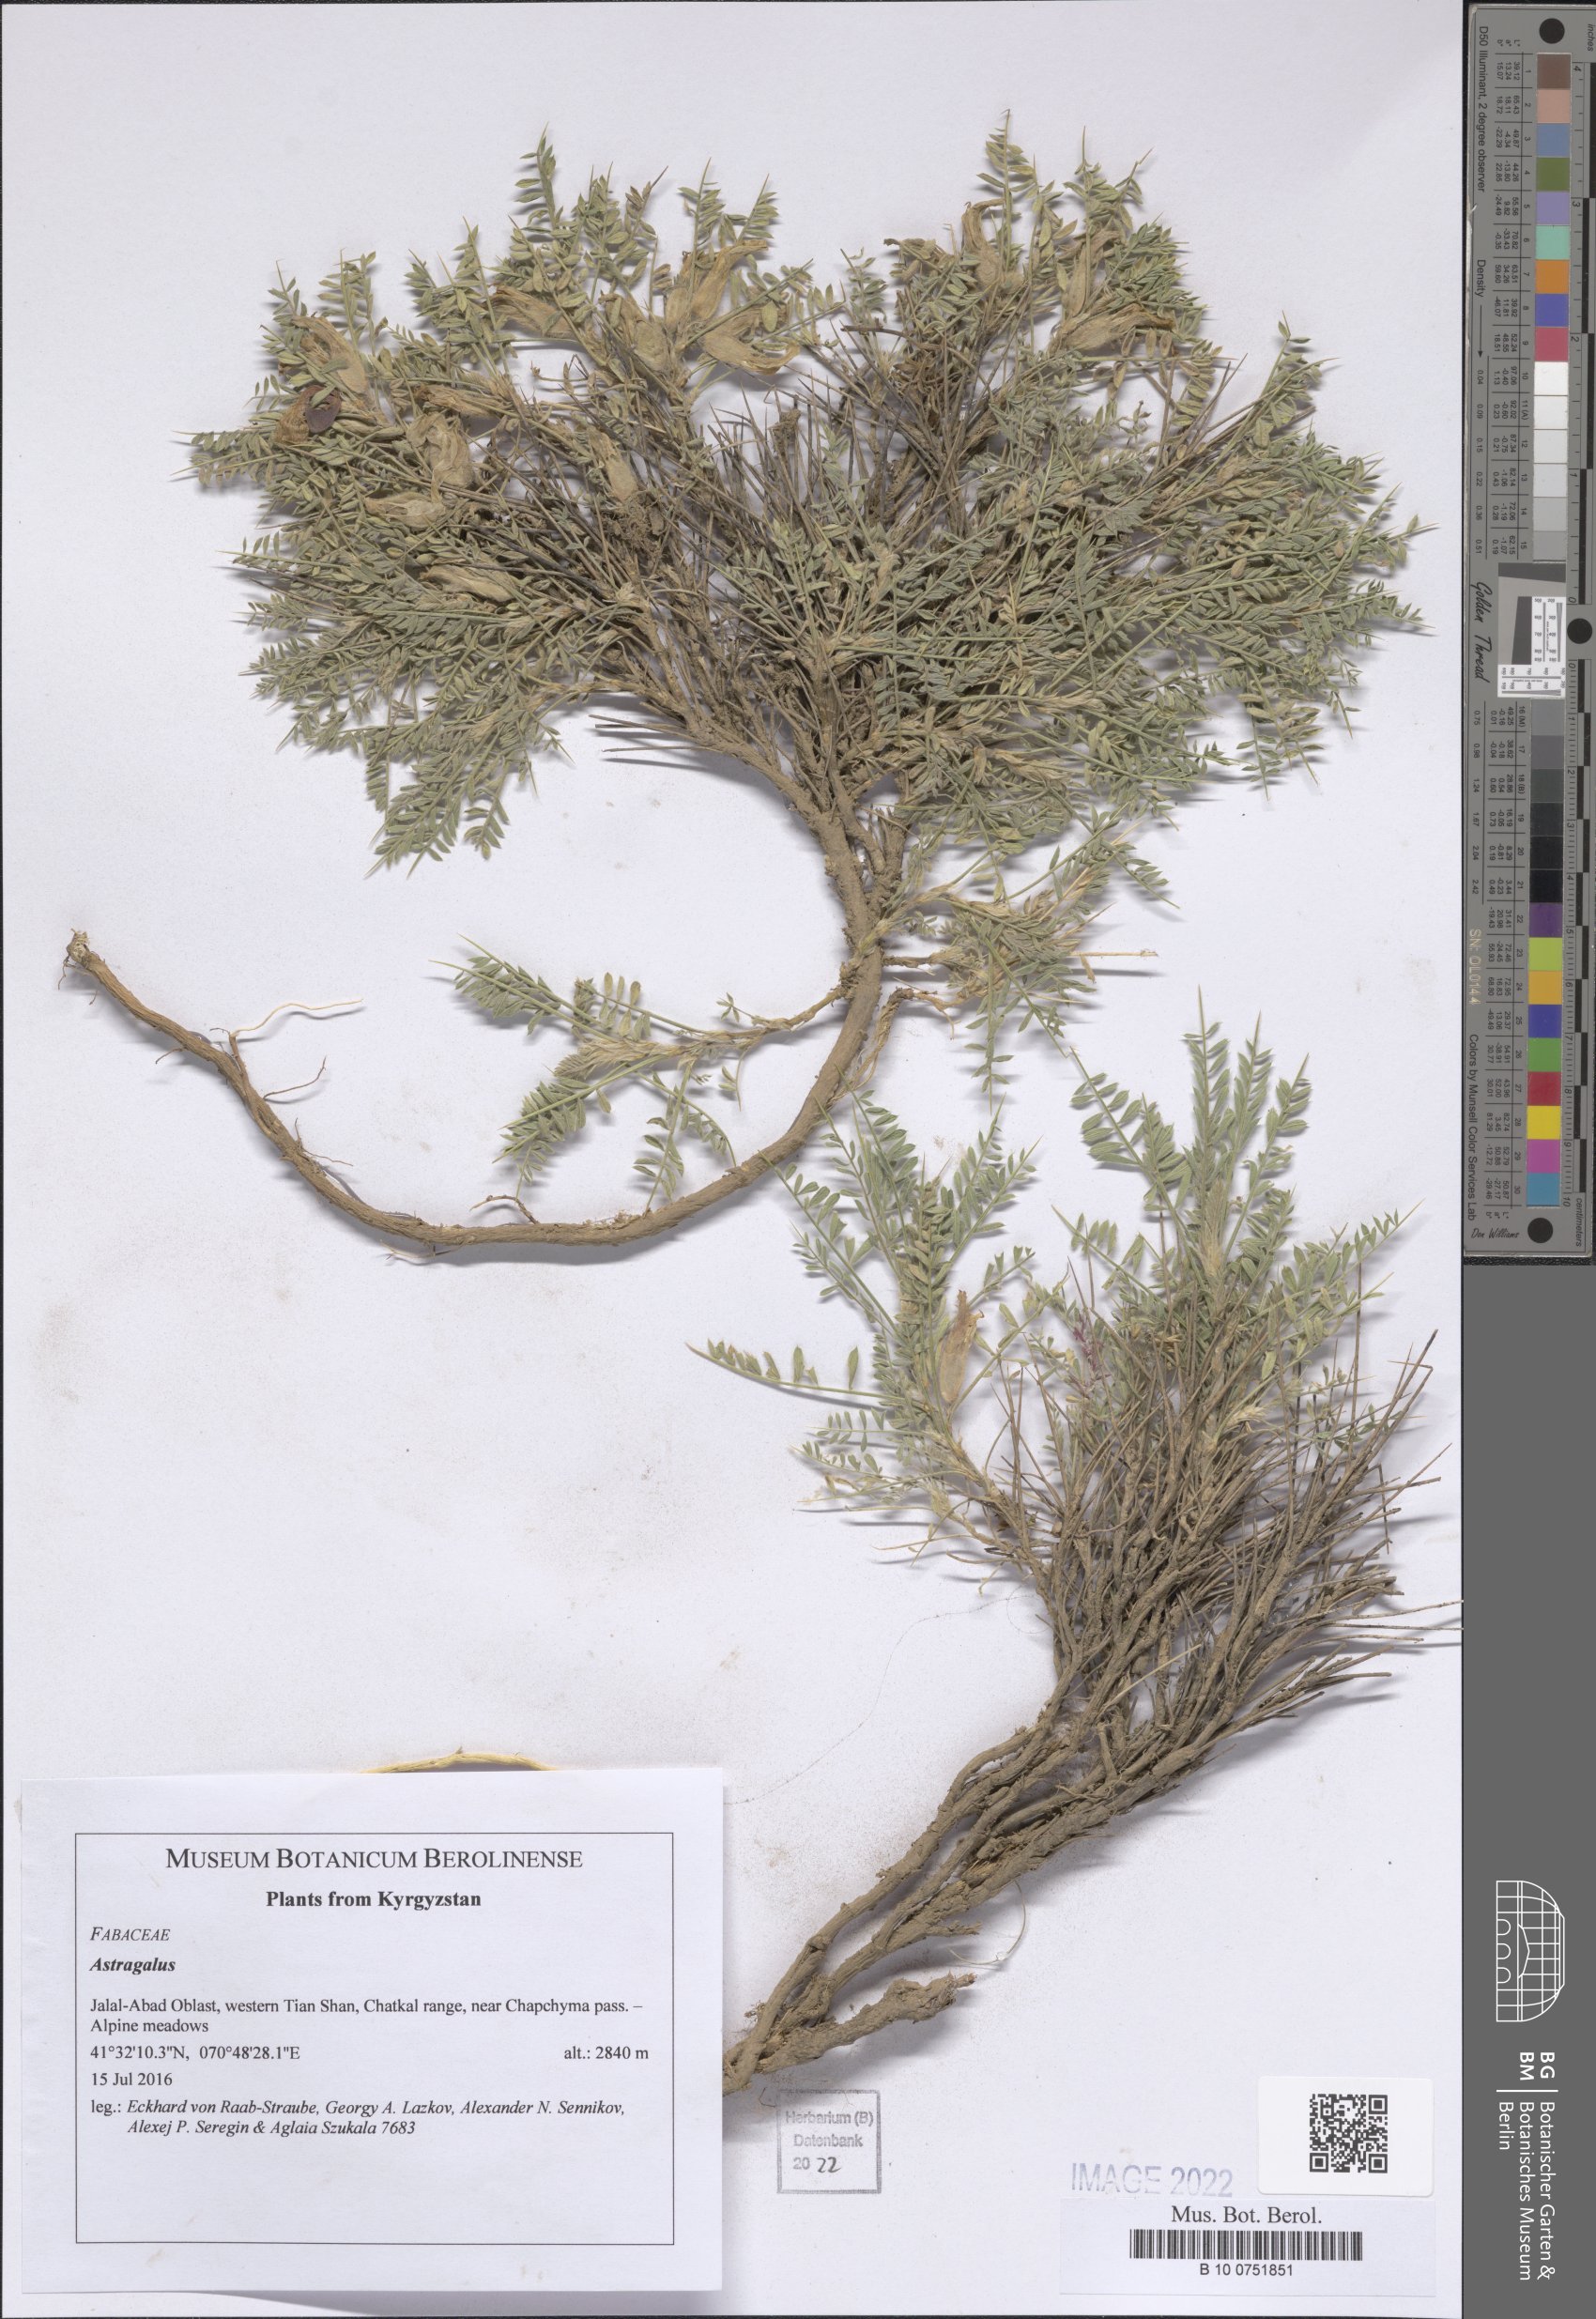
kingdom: Plantae
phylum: Tracheophyta
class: Magnoliopsida
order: Fabales
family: Fabaceae
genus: Astragalus
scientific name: Astragalus
